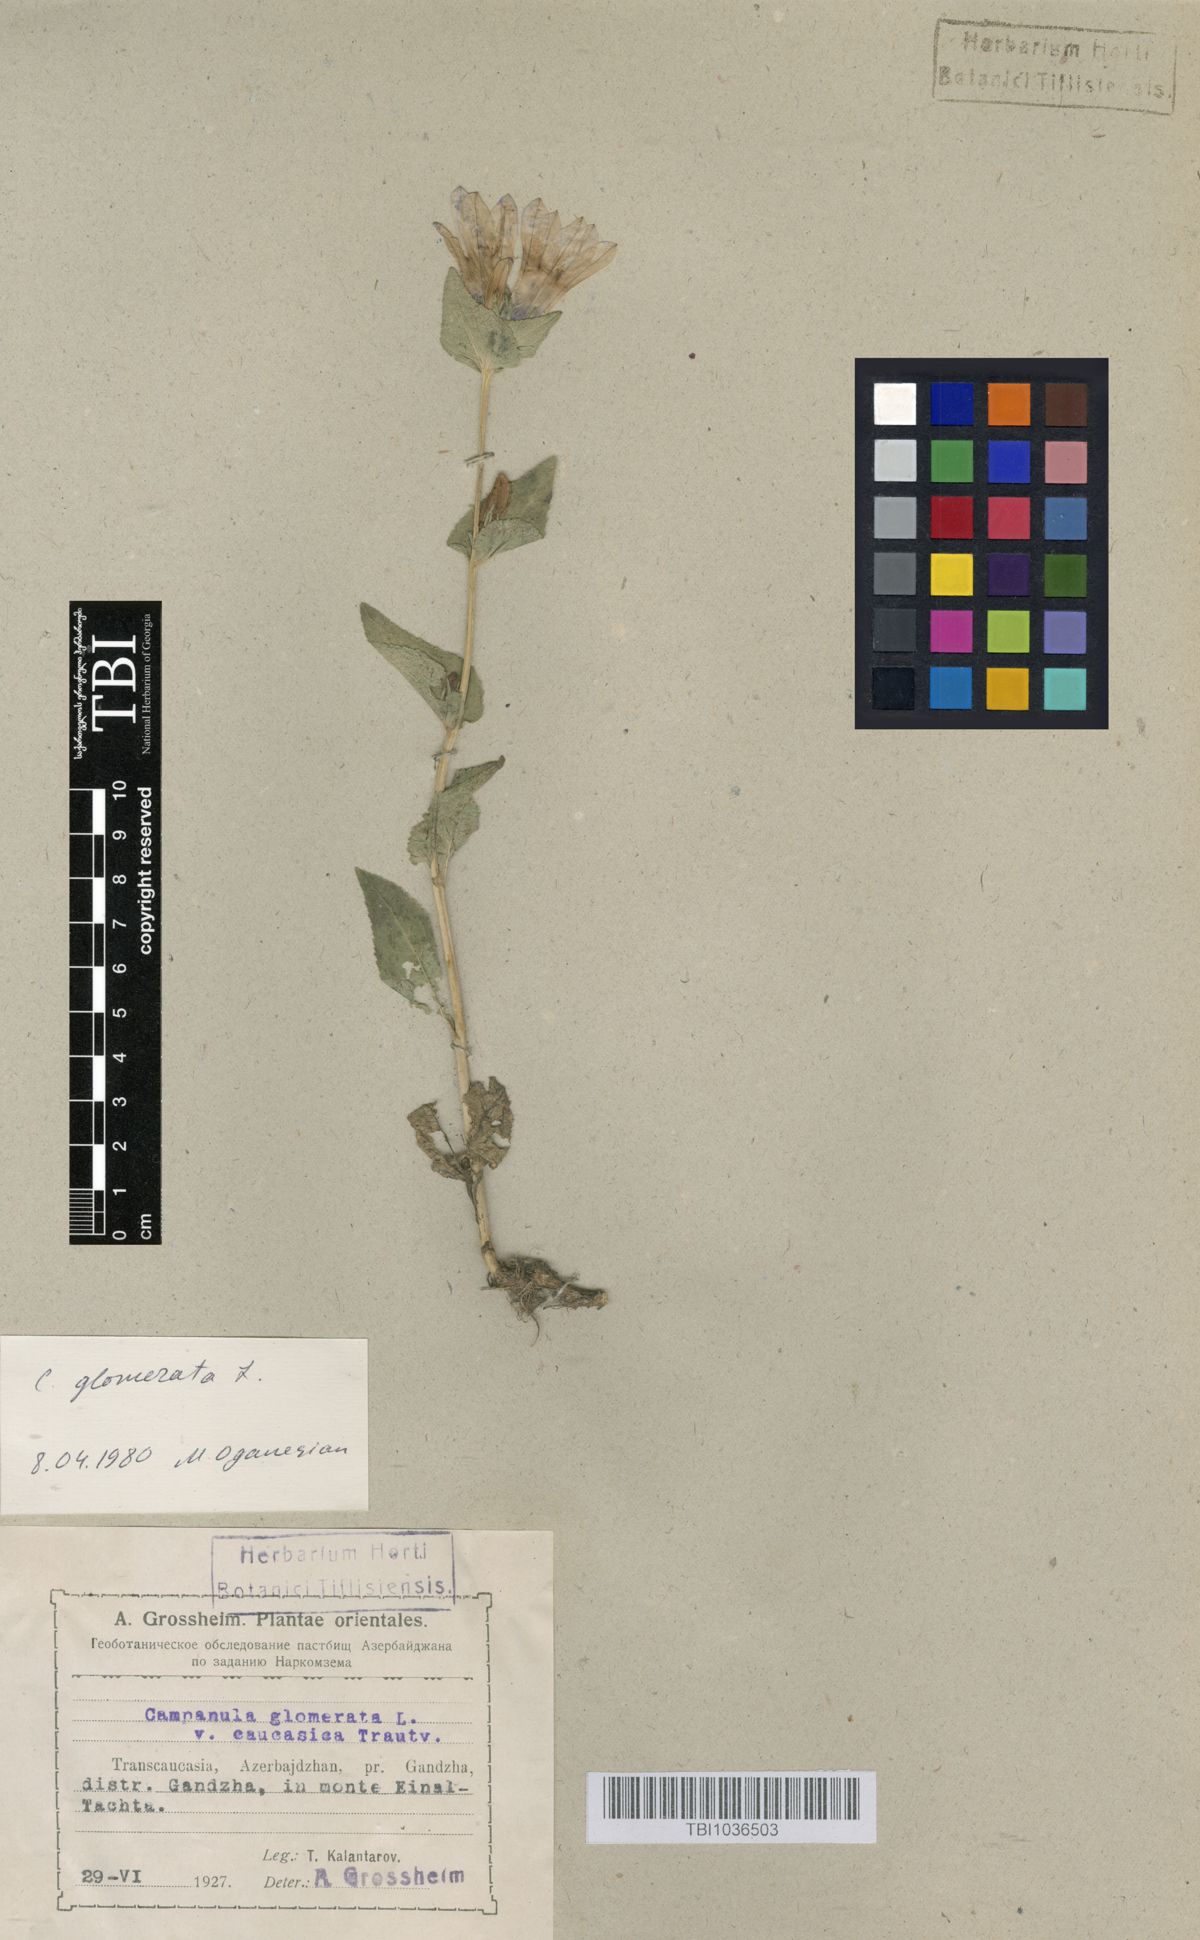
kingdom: Plantae
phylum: Tracheophyta
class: Magnoliopsida
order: Asterales
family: Campanulaceae
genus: Campanula
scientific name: Campanula glomerata
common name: Clustered bellflower
